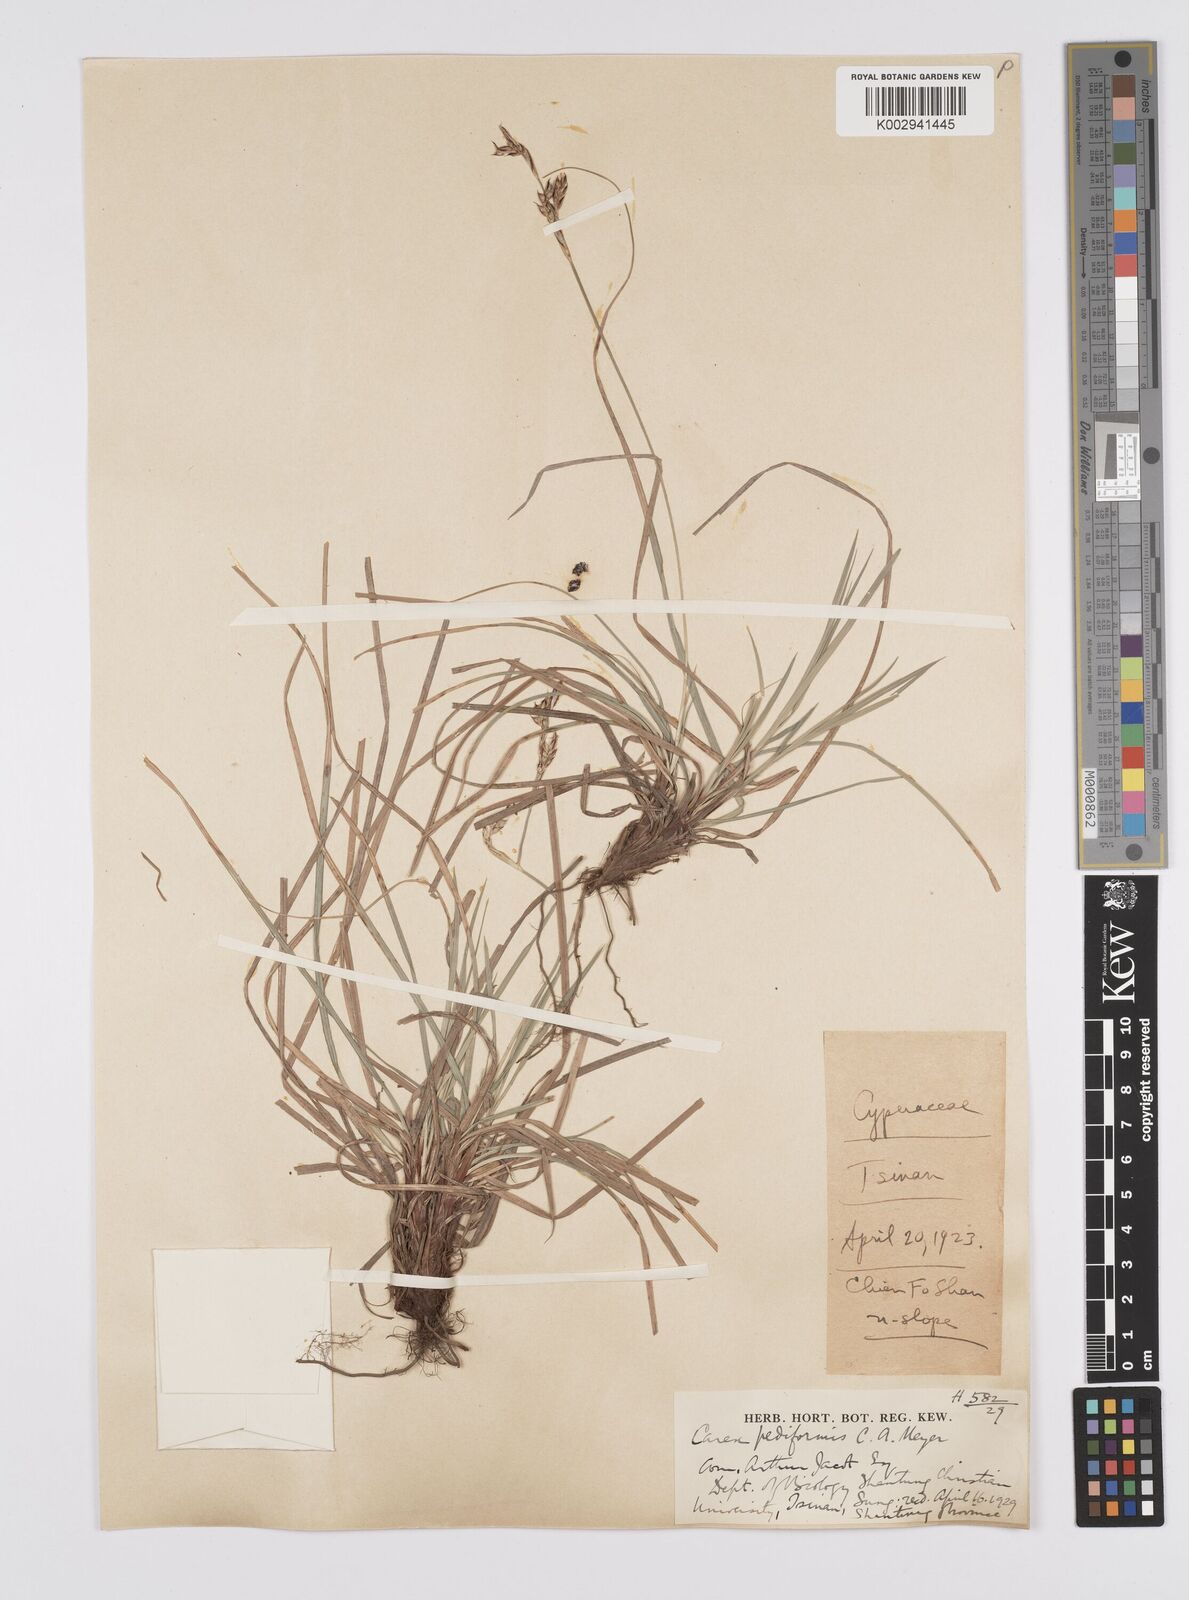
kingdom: Plantae
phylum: Tracheophyta
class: Liliopsida
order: Poales
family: Cyperaceae
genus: Carex
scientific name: Carex lanceolata
